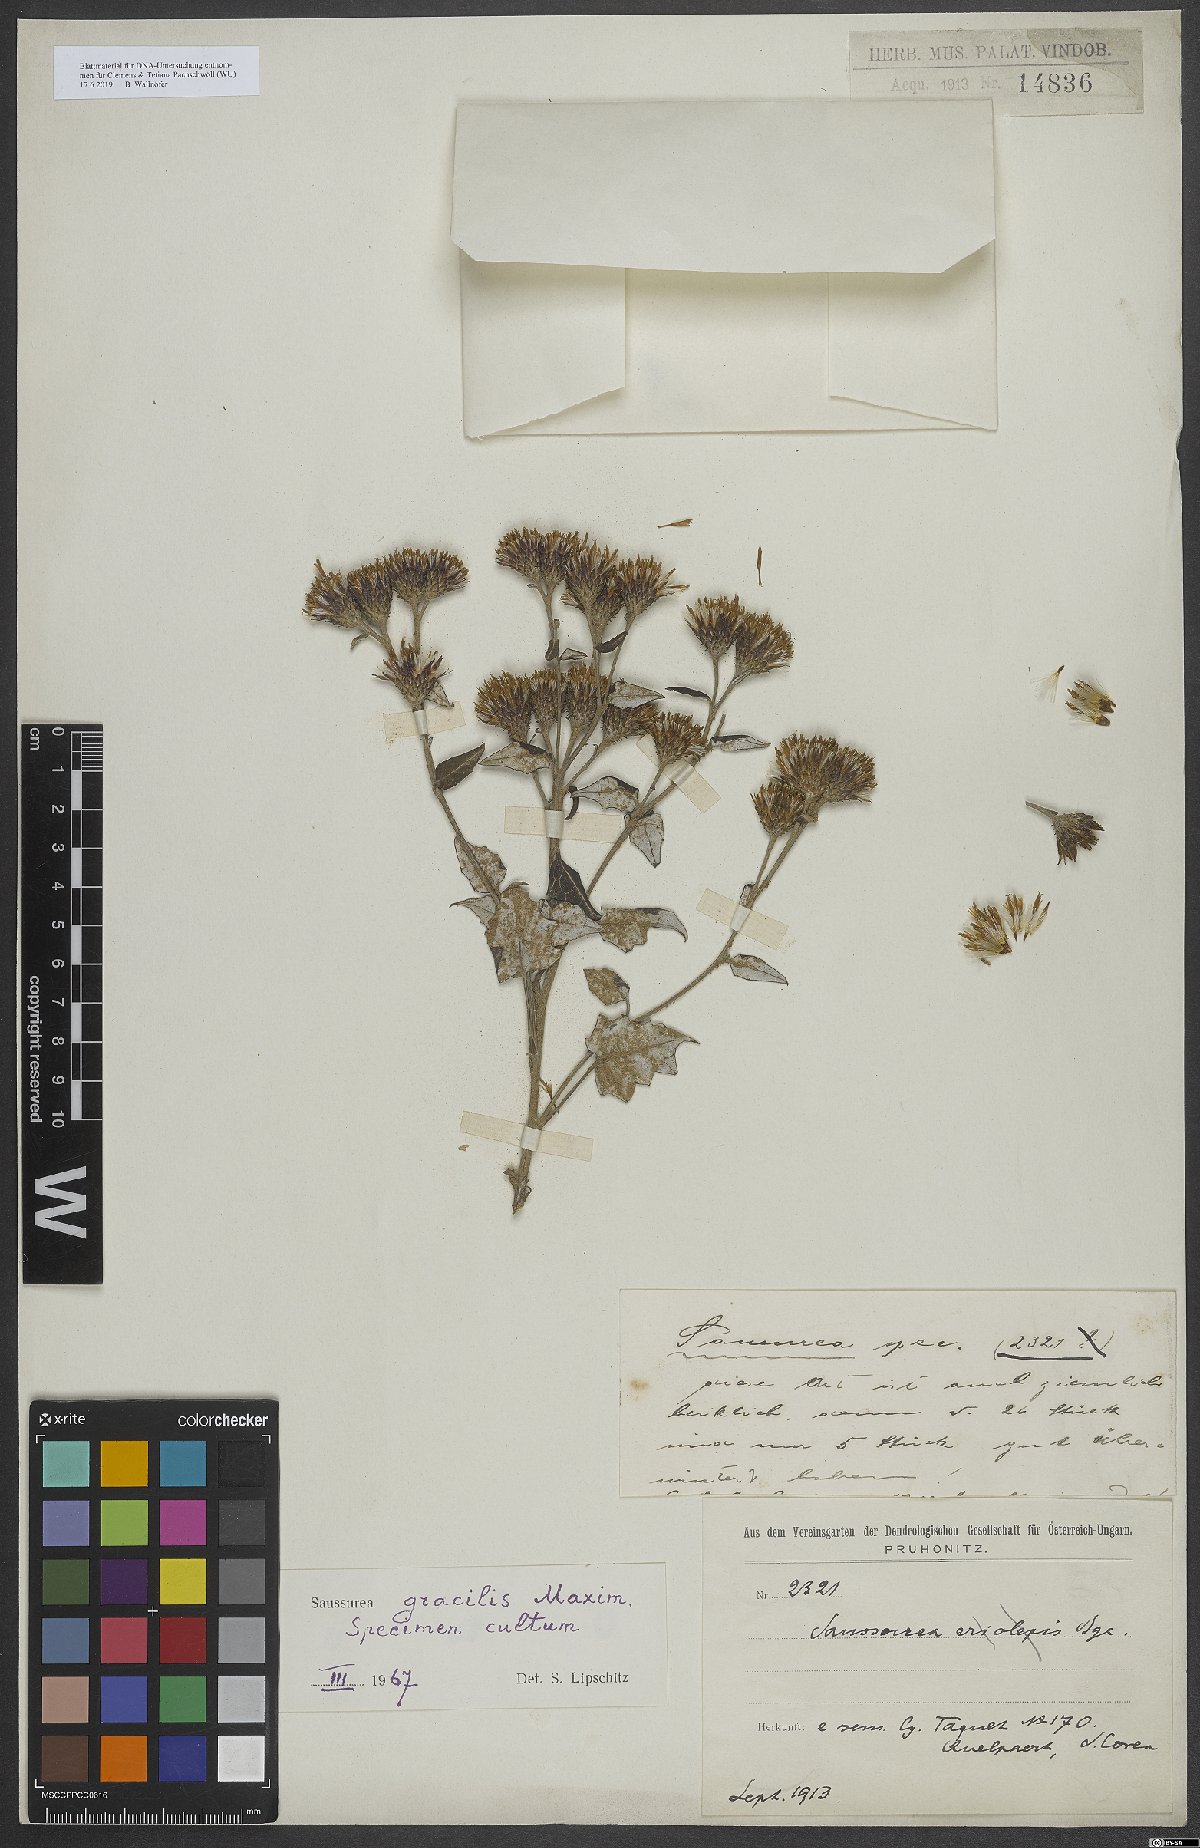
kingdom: Plantae
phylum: Tracheophyta
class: Magnoliopsida
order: Asterales
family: Asteraceae
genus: Saussurea
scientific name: Saussurea
